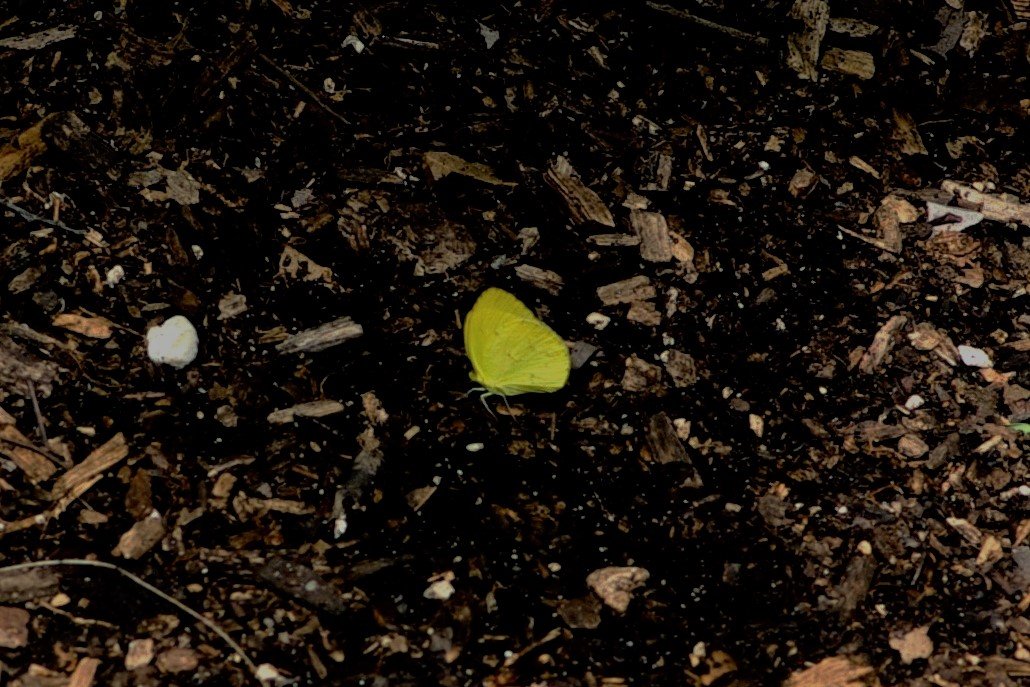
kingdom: Animalia
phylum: Arthropoda
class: Insecta
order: Lepidoptera
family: Pieridae
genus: Pyrisitia
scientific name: Pyrisitia lisa
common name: Little Yellow
